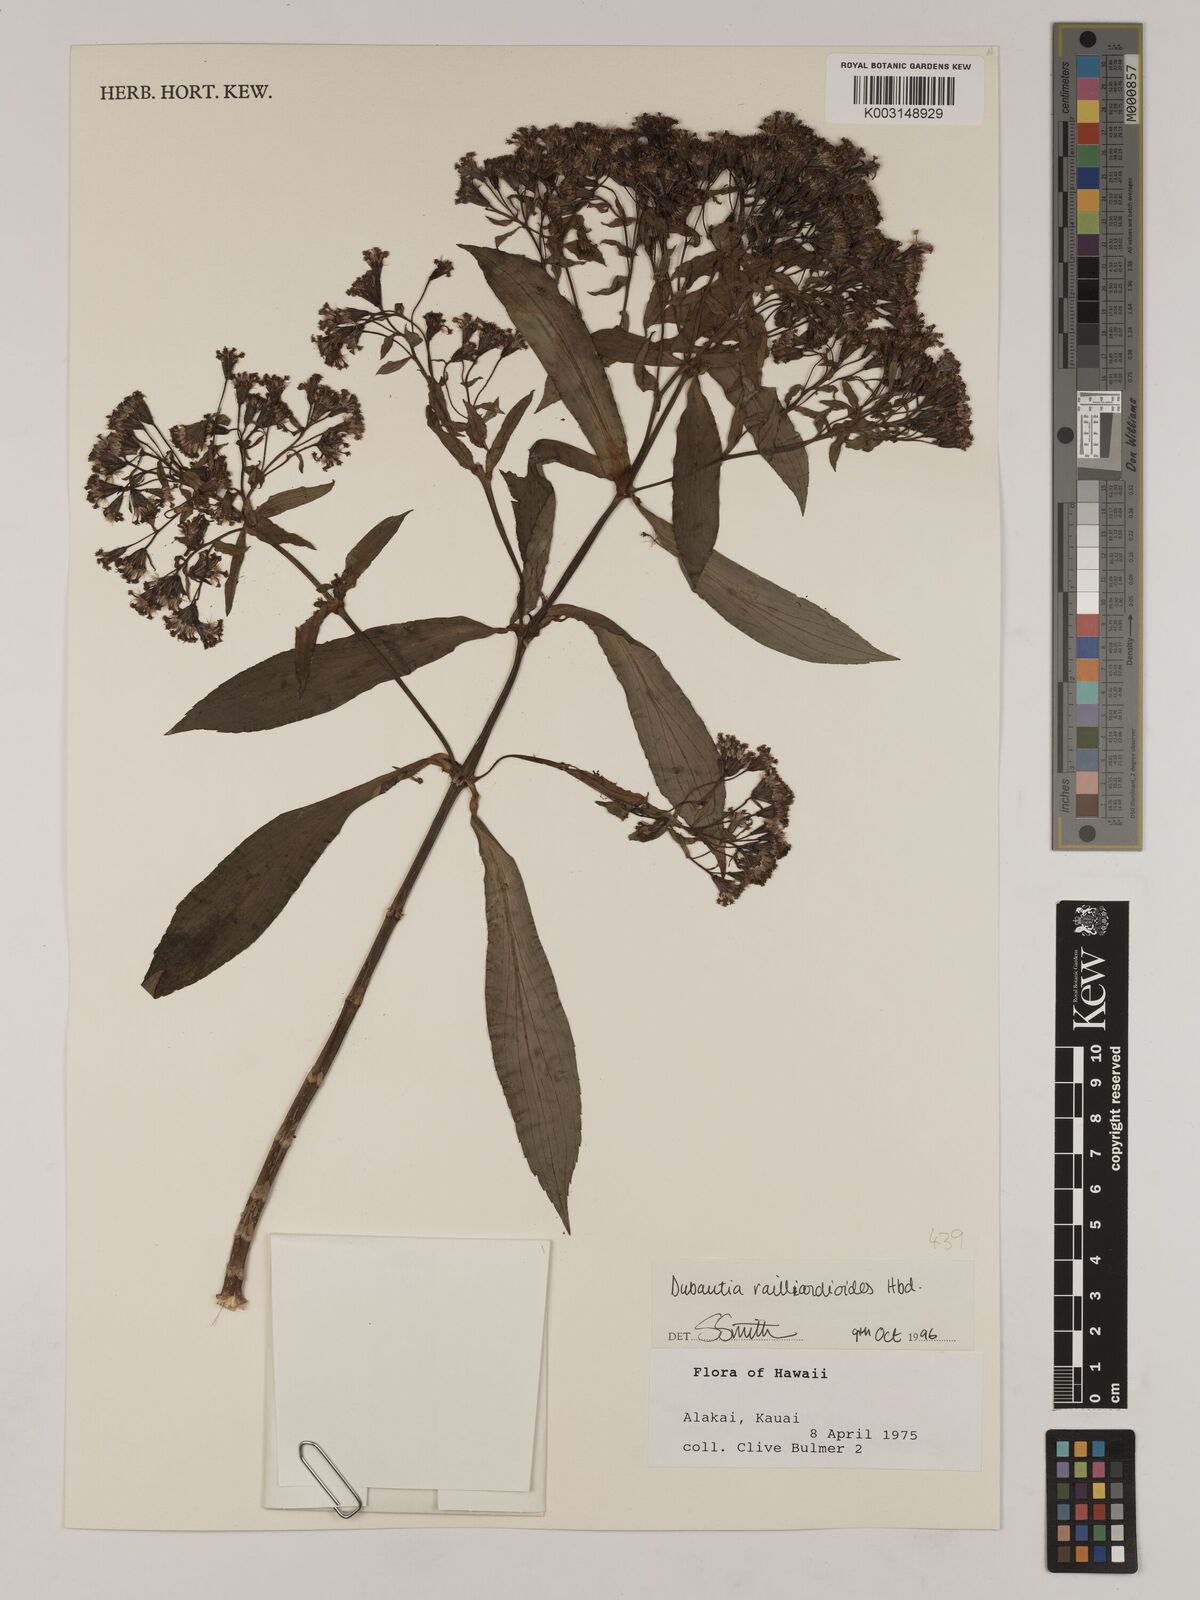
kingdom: Plantae
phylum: Tracheophyta
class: Magnoliopsida
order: Asterales
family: Asteraceae
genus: Dubautia
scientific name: Dubautia raillardioides
